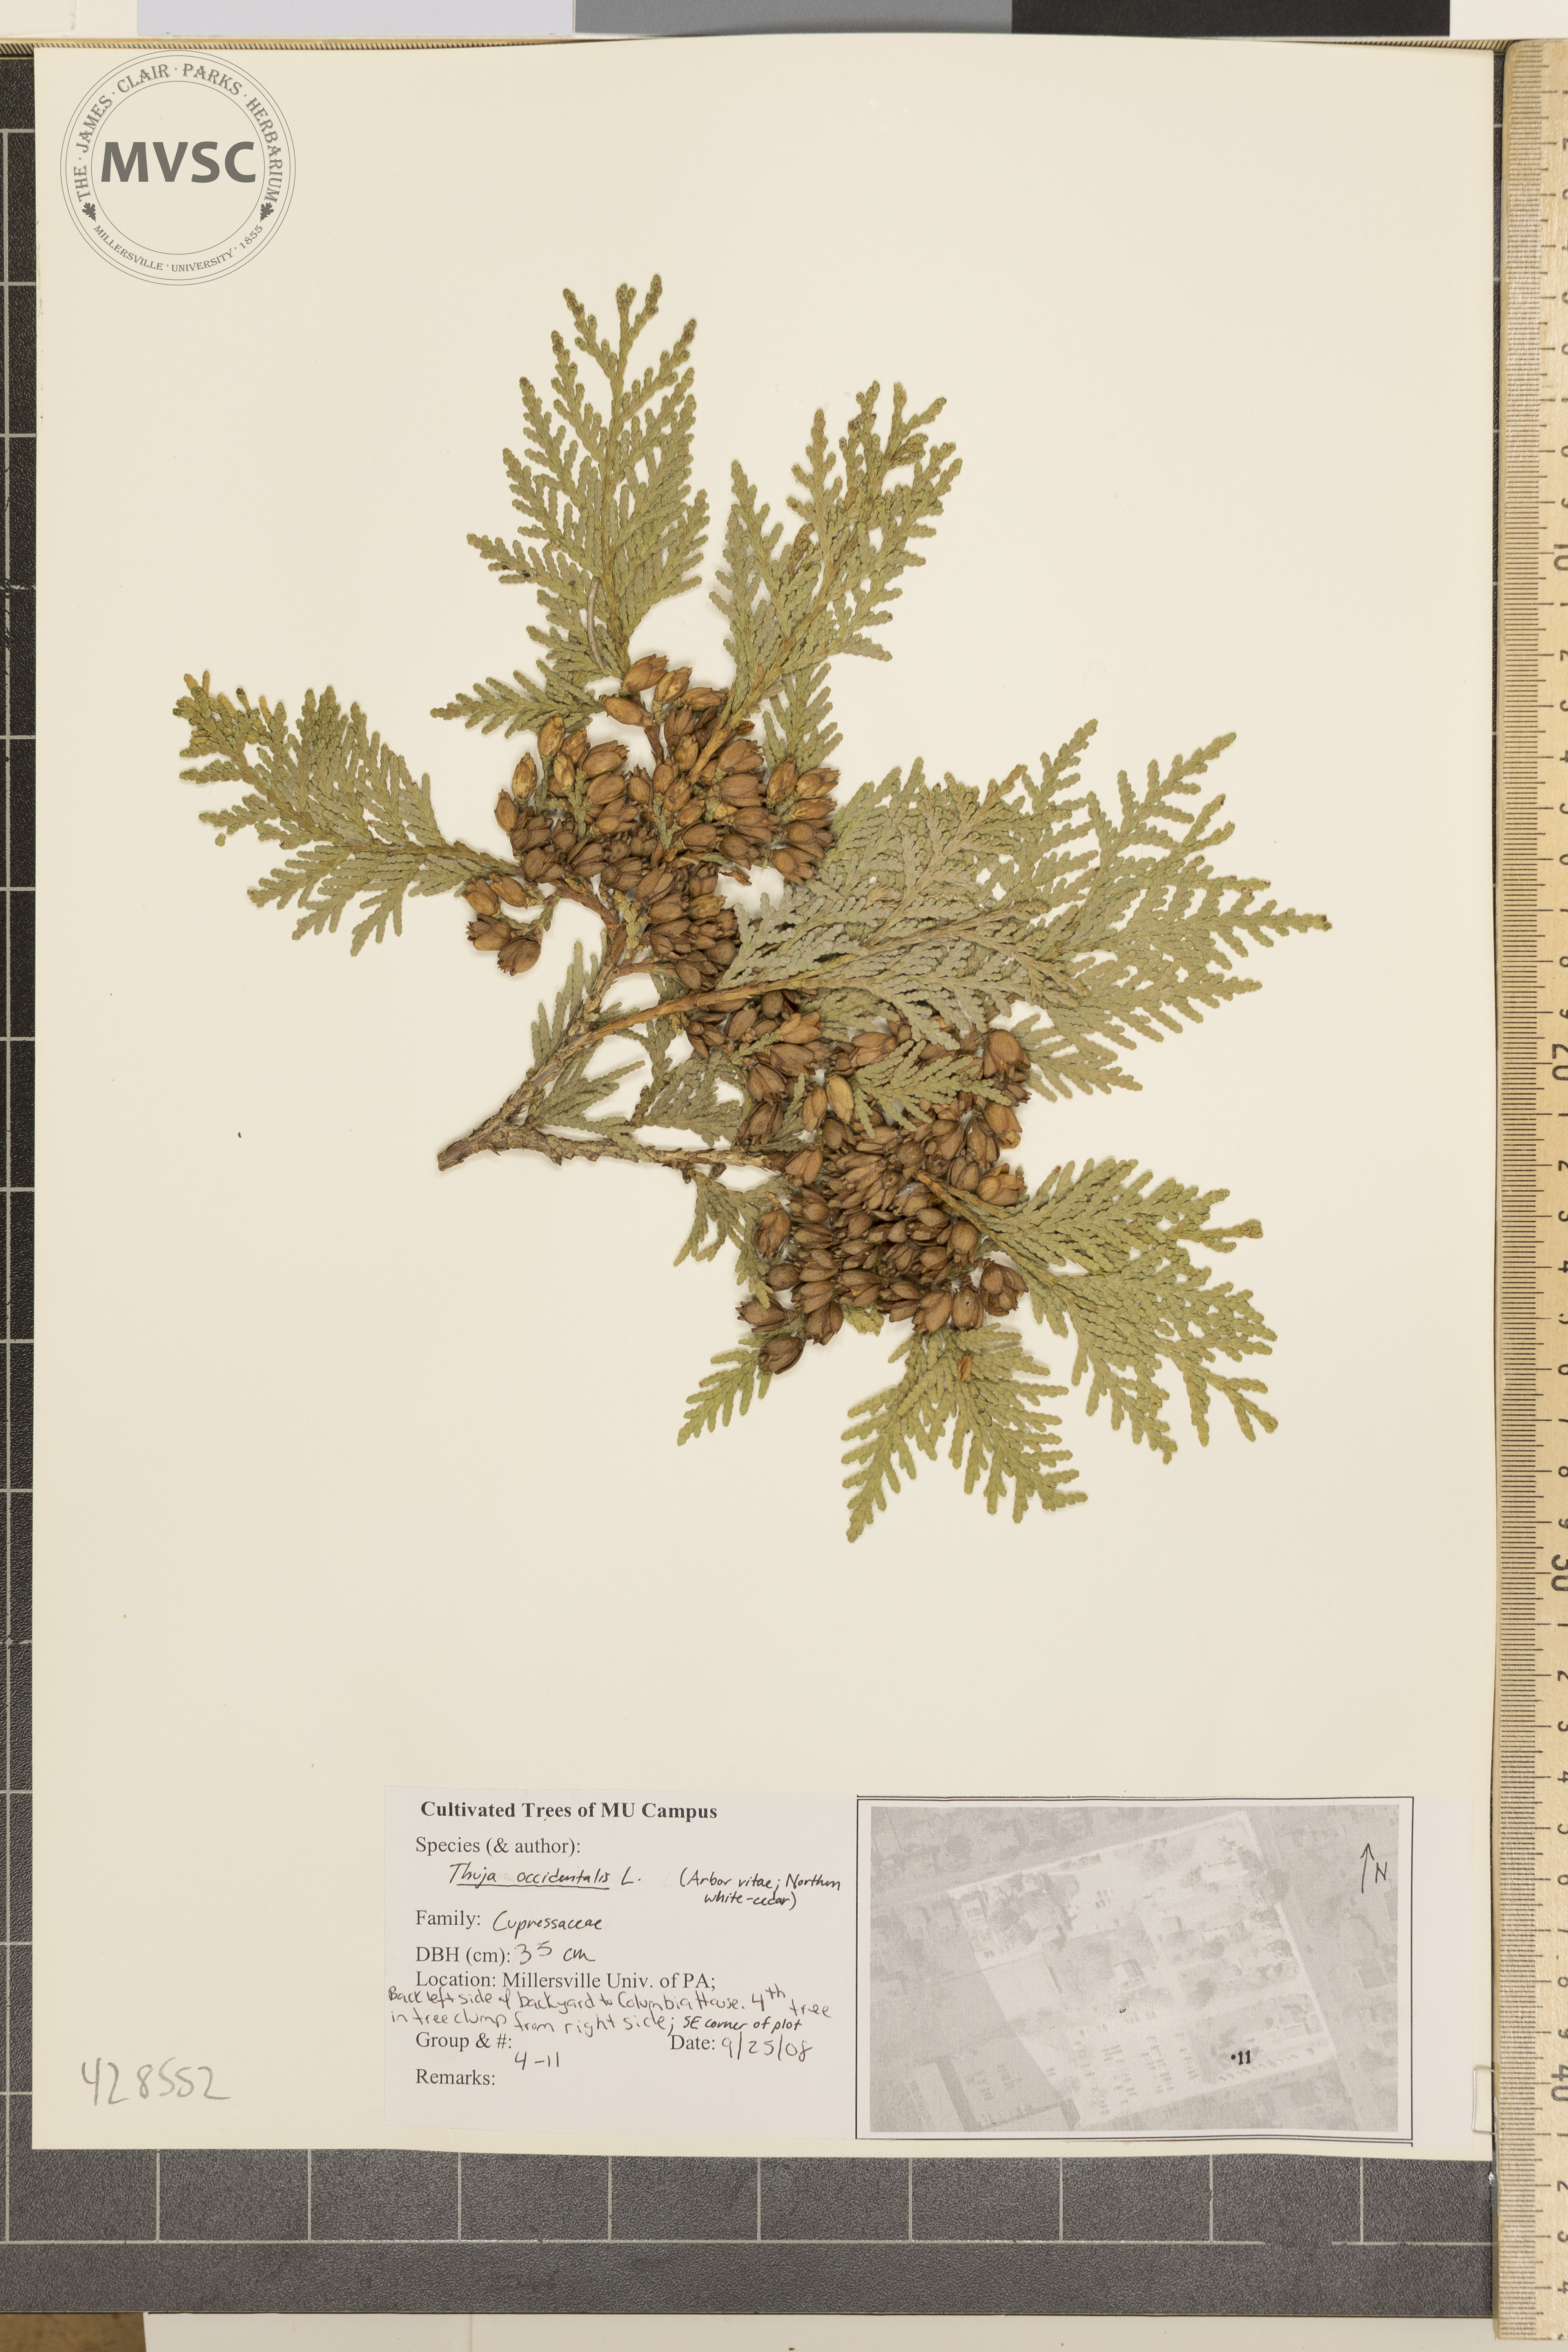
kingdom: Plantae
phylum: Tracheophyta
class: Pinopsida
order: Pinales
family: Cupressaceae
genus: Thuja
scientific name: Thuja occidentalis
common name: Arborvitae
